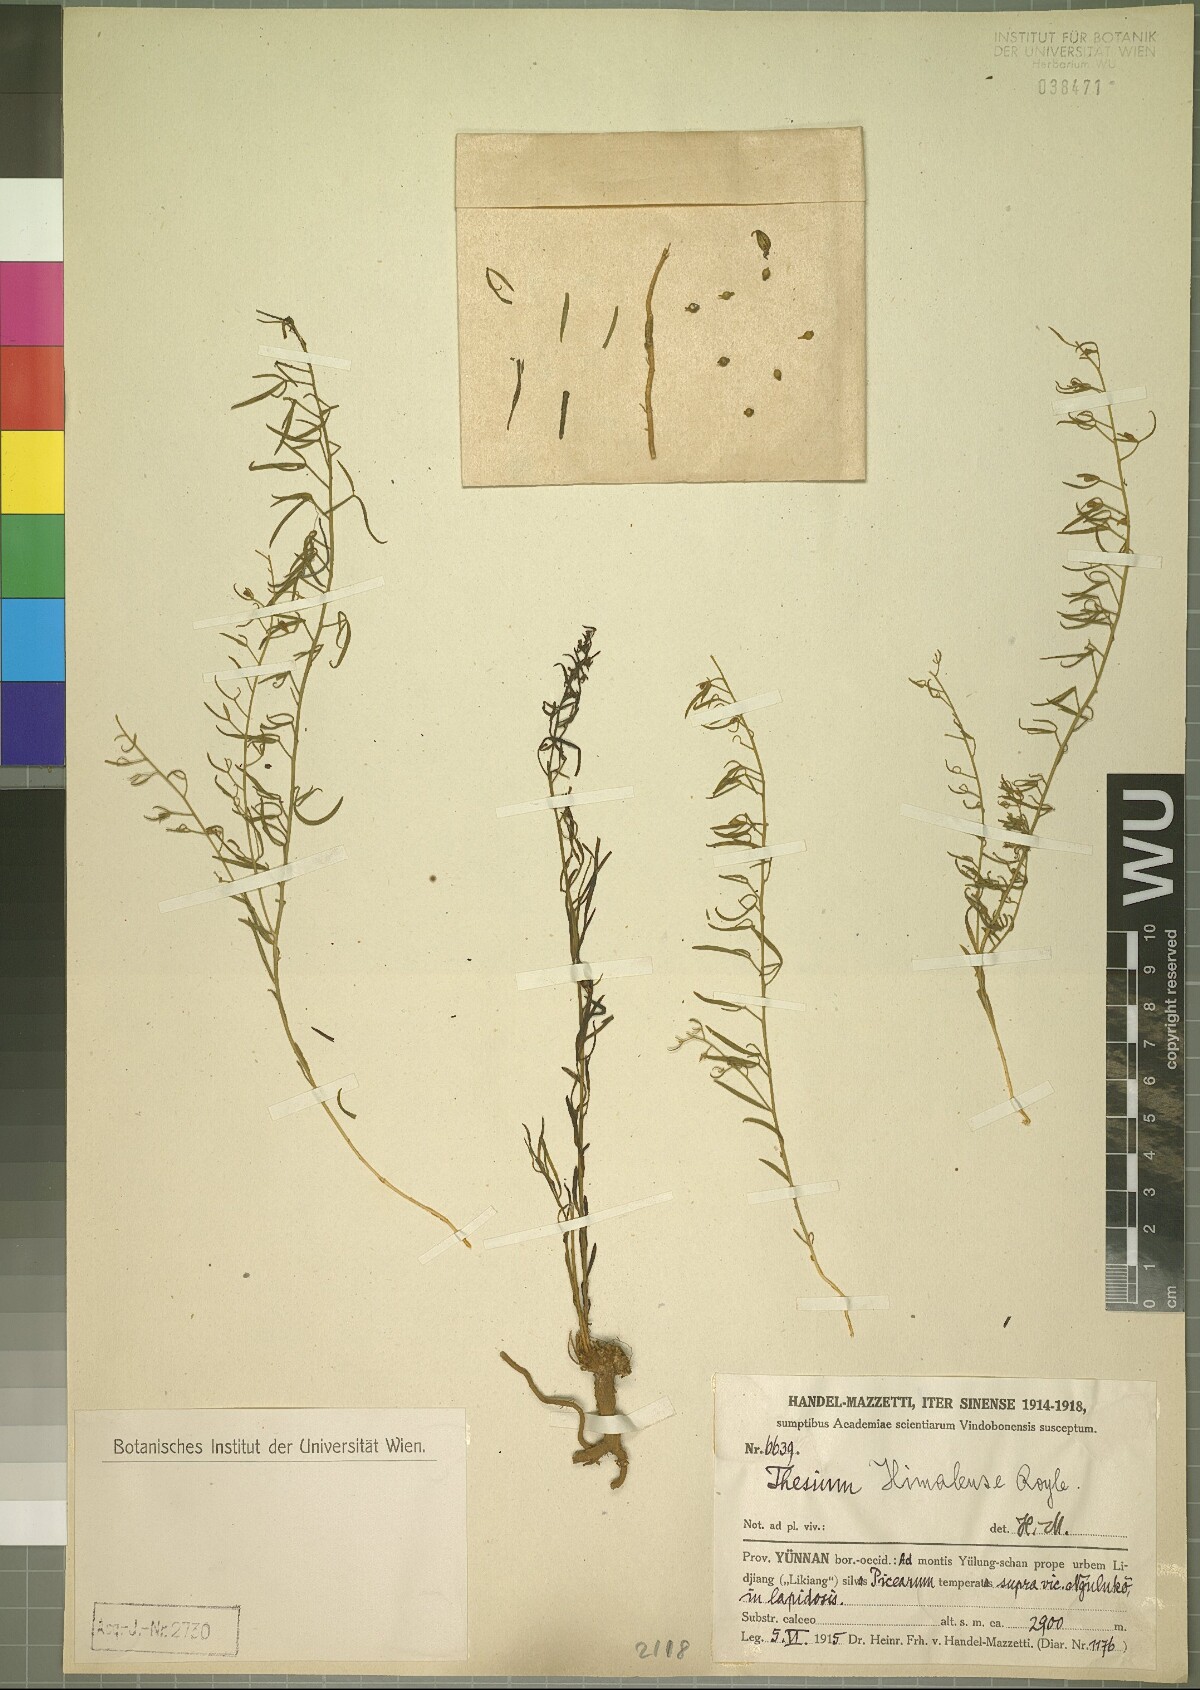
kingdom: Plantae
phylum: Tracheophyta
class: Magnoliopsida
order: Santalales
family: Thesiaceae
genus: Thesium
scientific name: Thesium himalense
